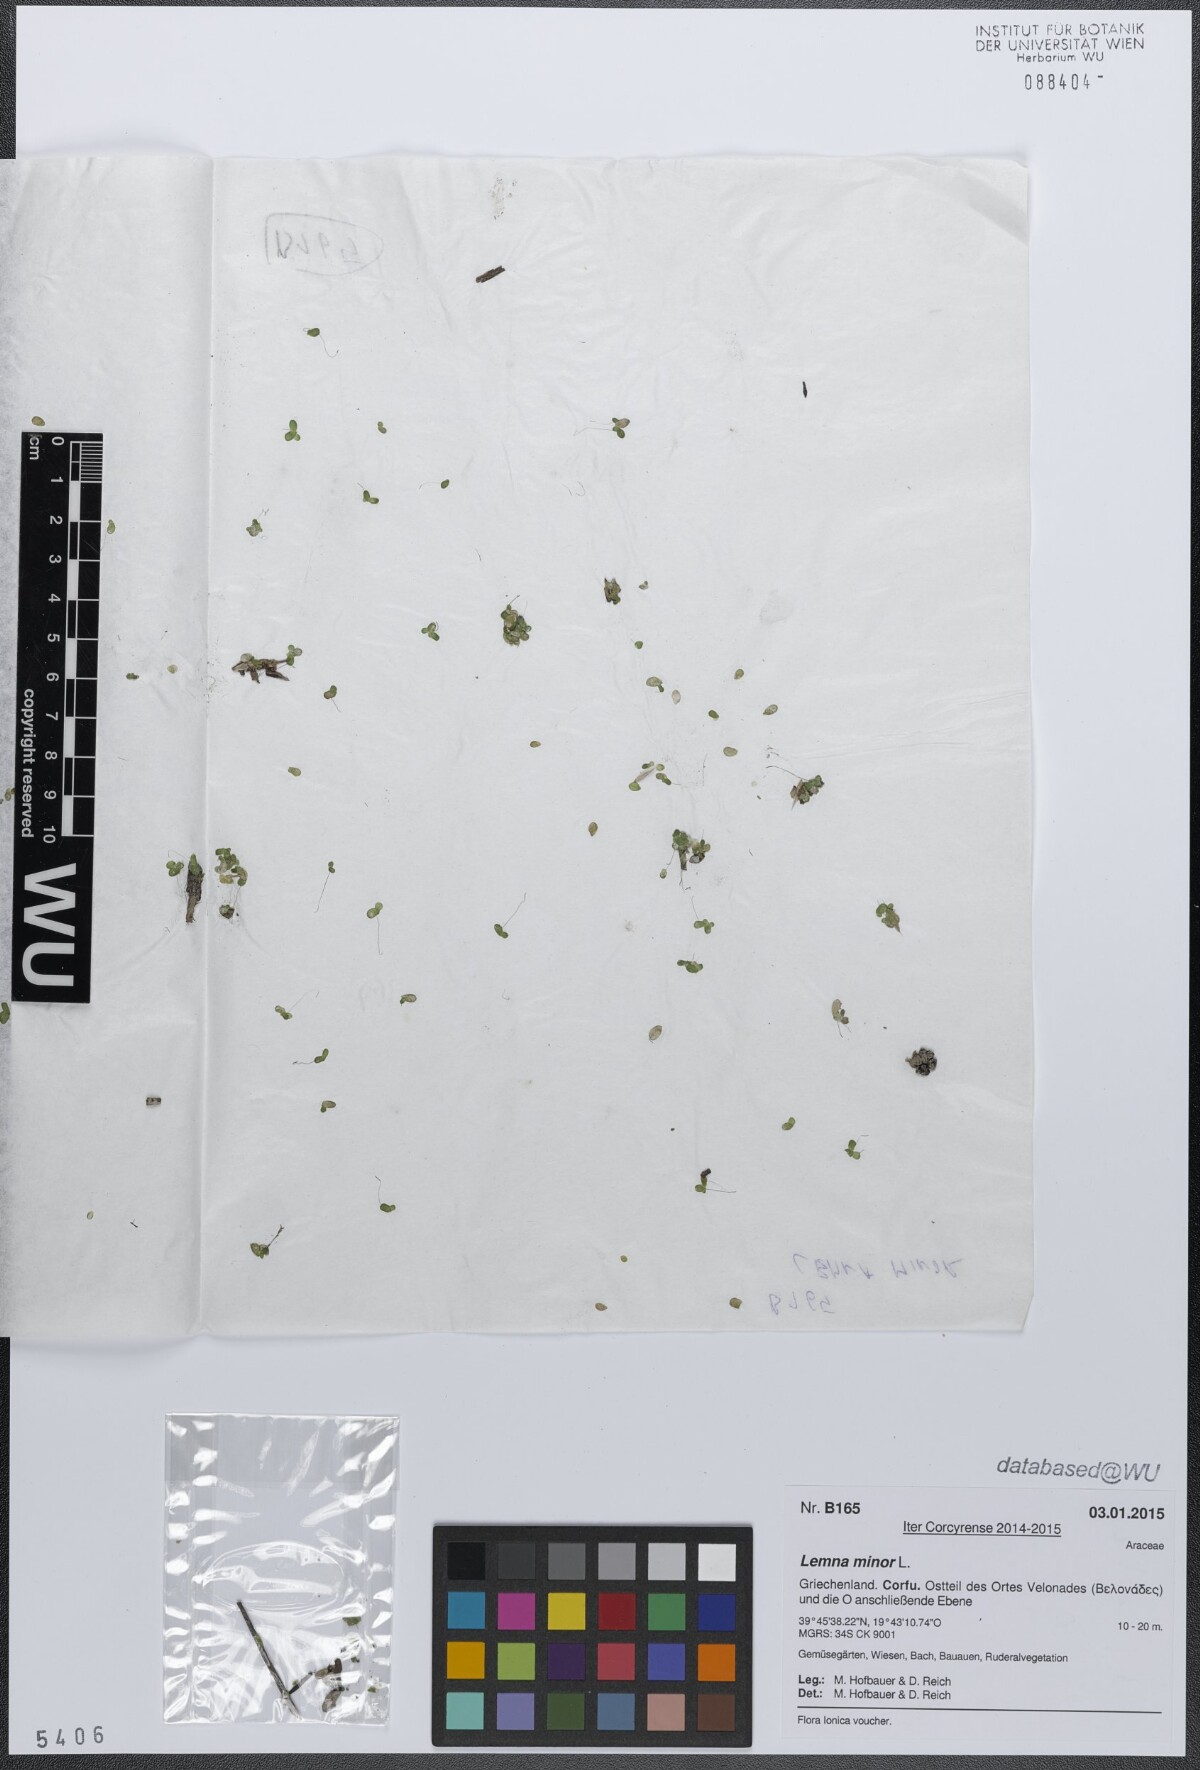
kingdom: Plantae
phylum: Tracheophyta
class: Liliopsida
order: Alismatales
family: Araceae
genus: Lemna
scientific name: Lemna minor
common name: Common duckweed
